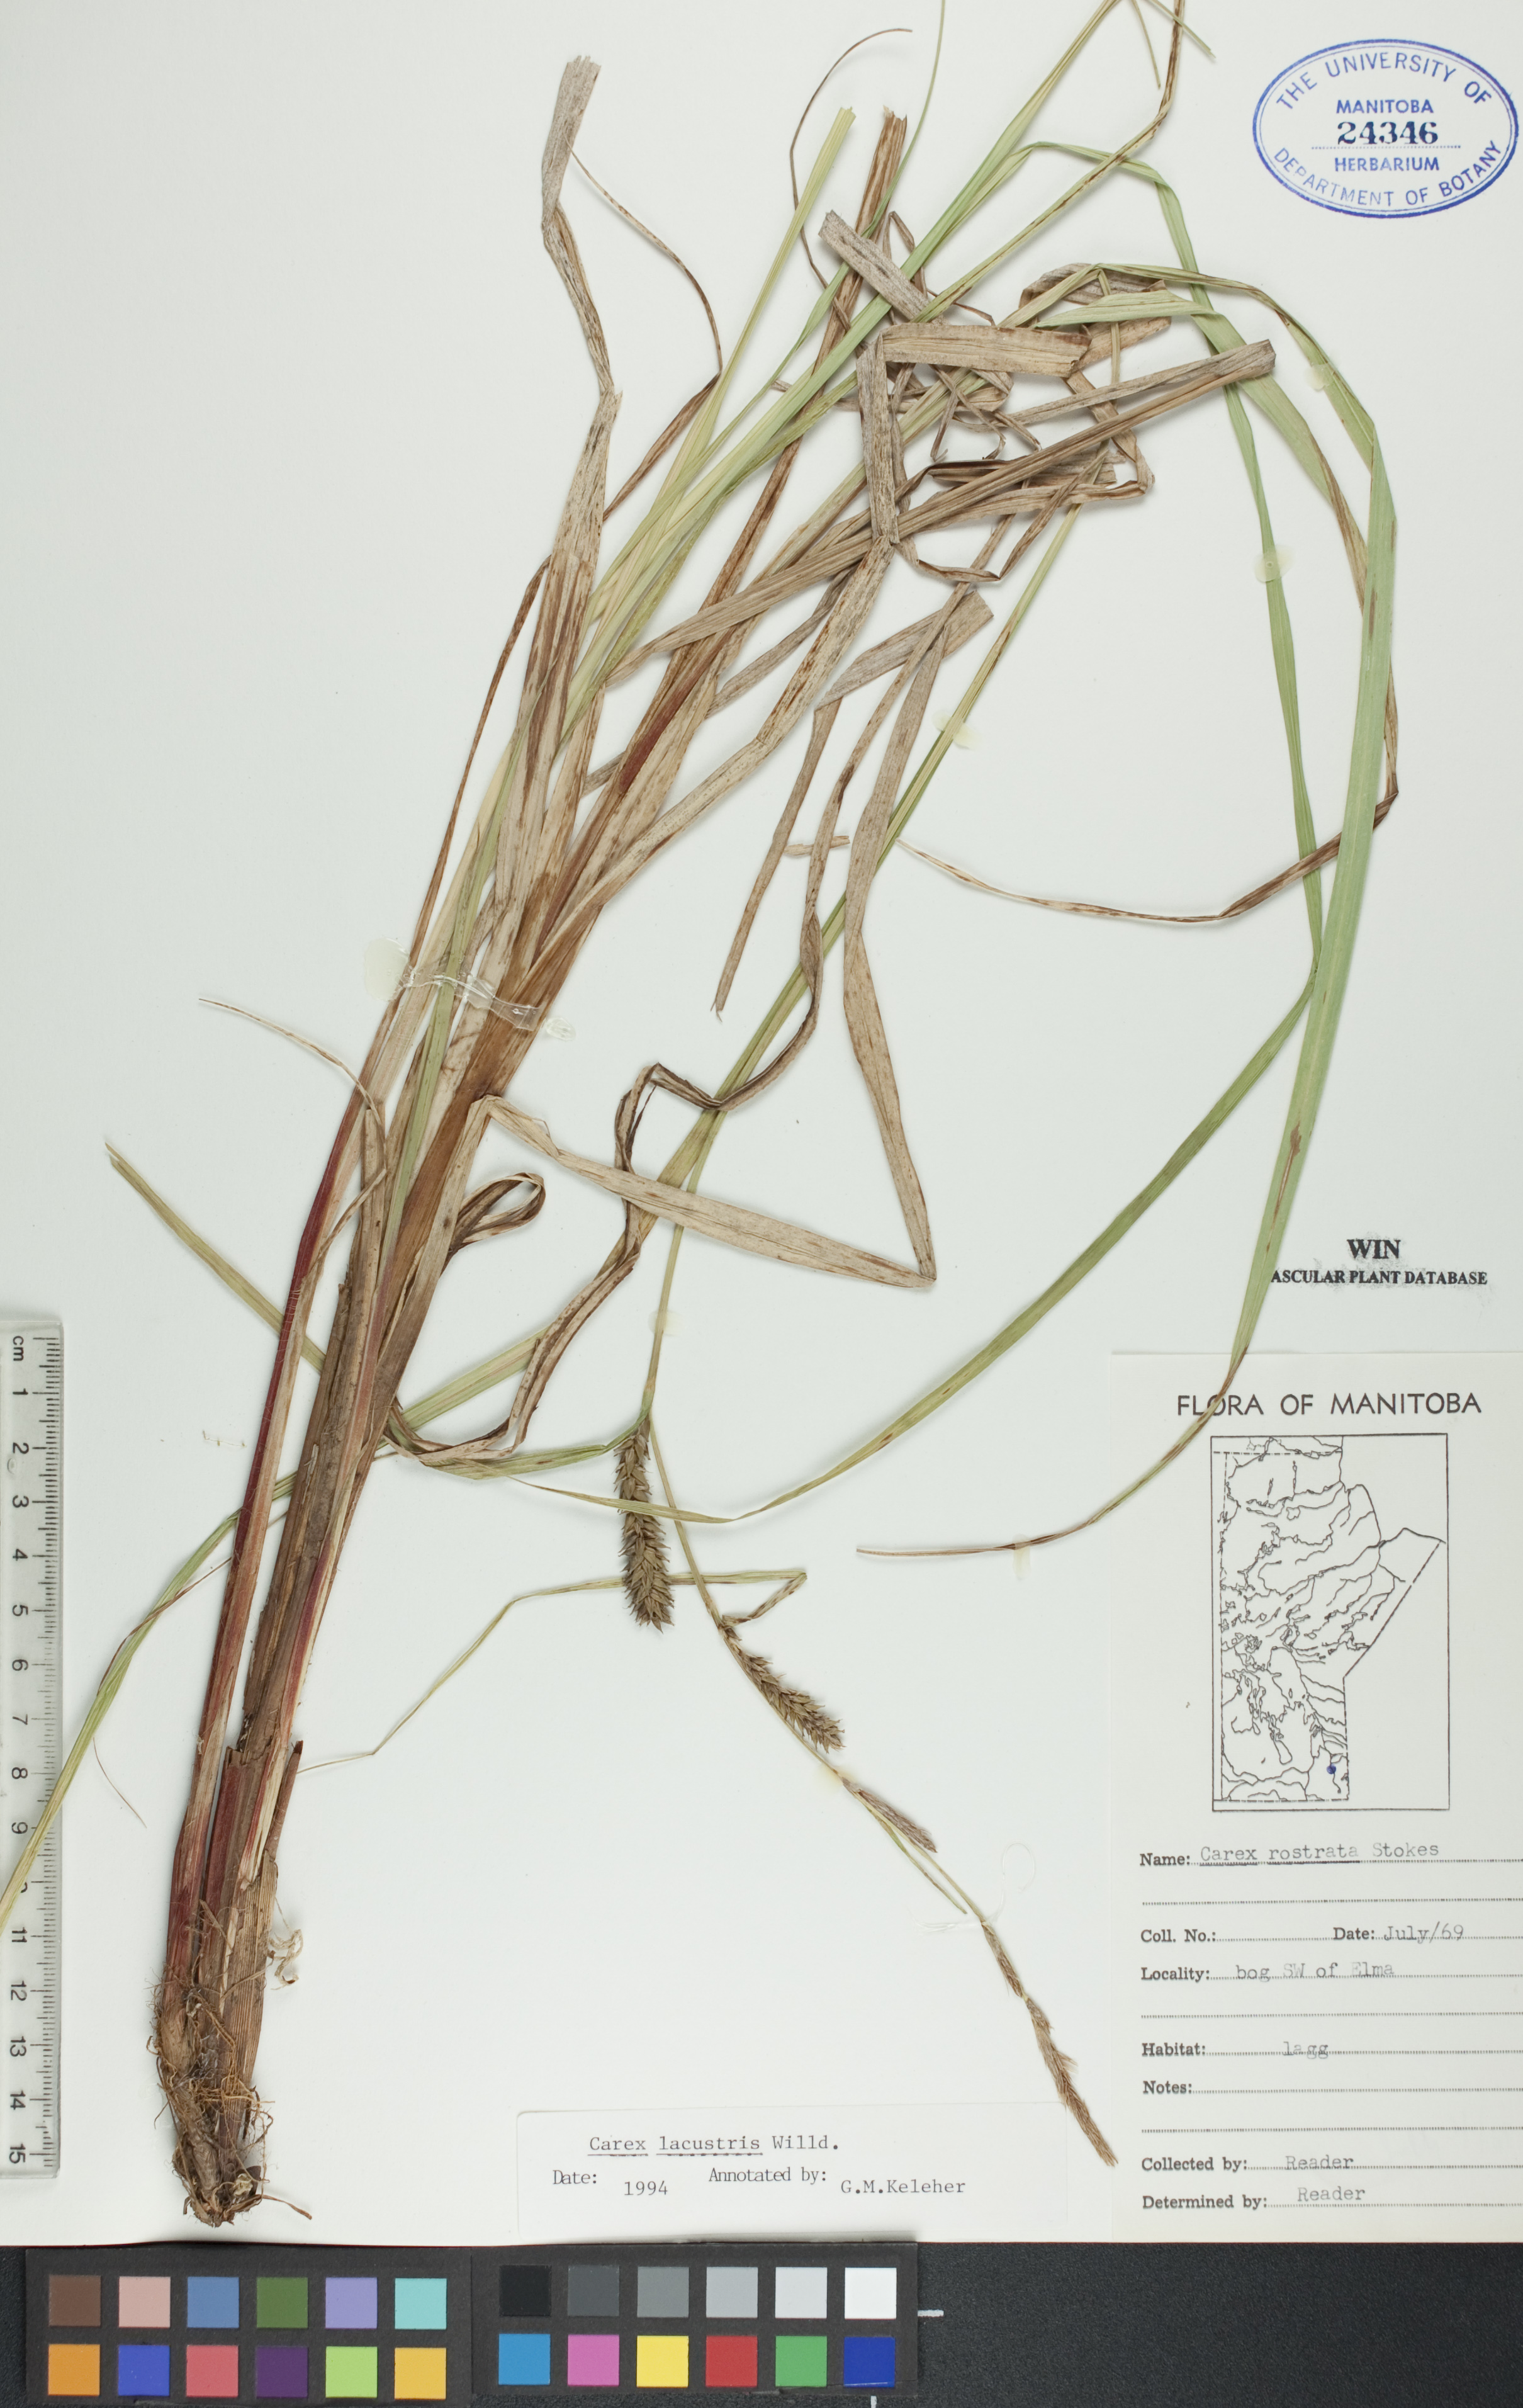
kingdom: Plantae
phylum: Tracheophyta
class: Liliopsida
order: Poales
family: Cyperaceae
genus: Carex
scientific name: Carex lacustris
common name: Common lake sedge
